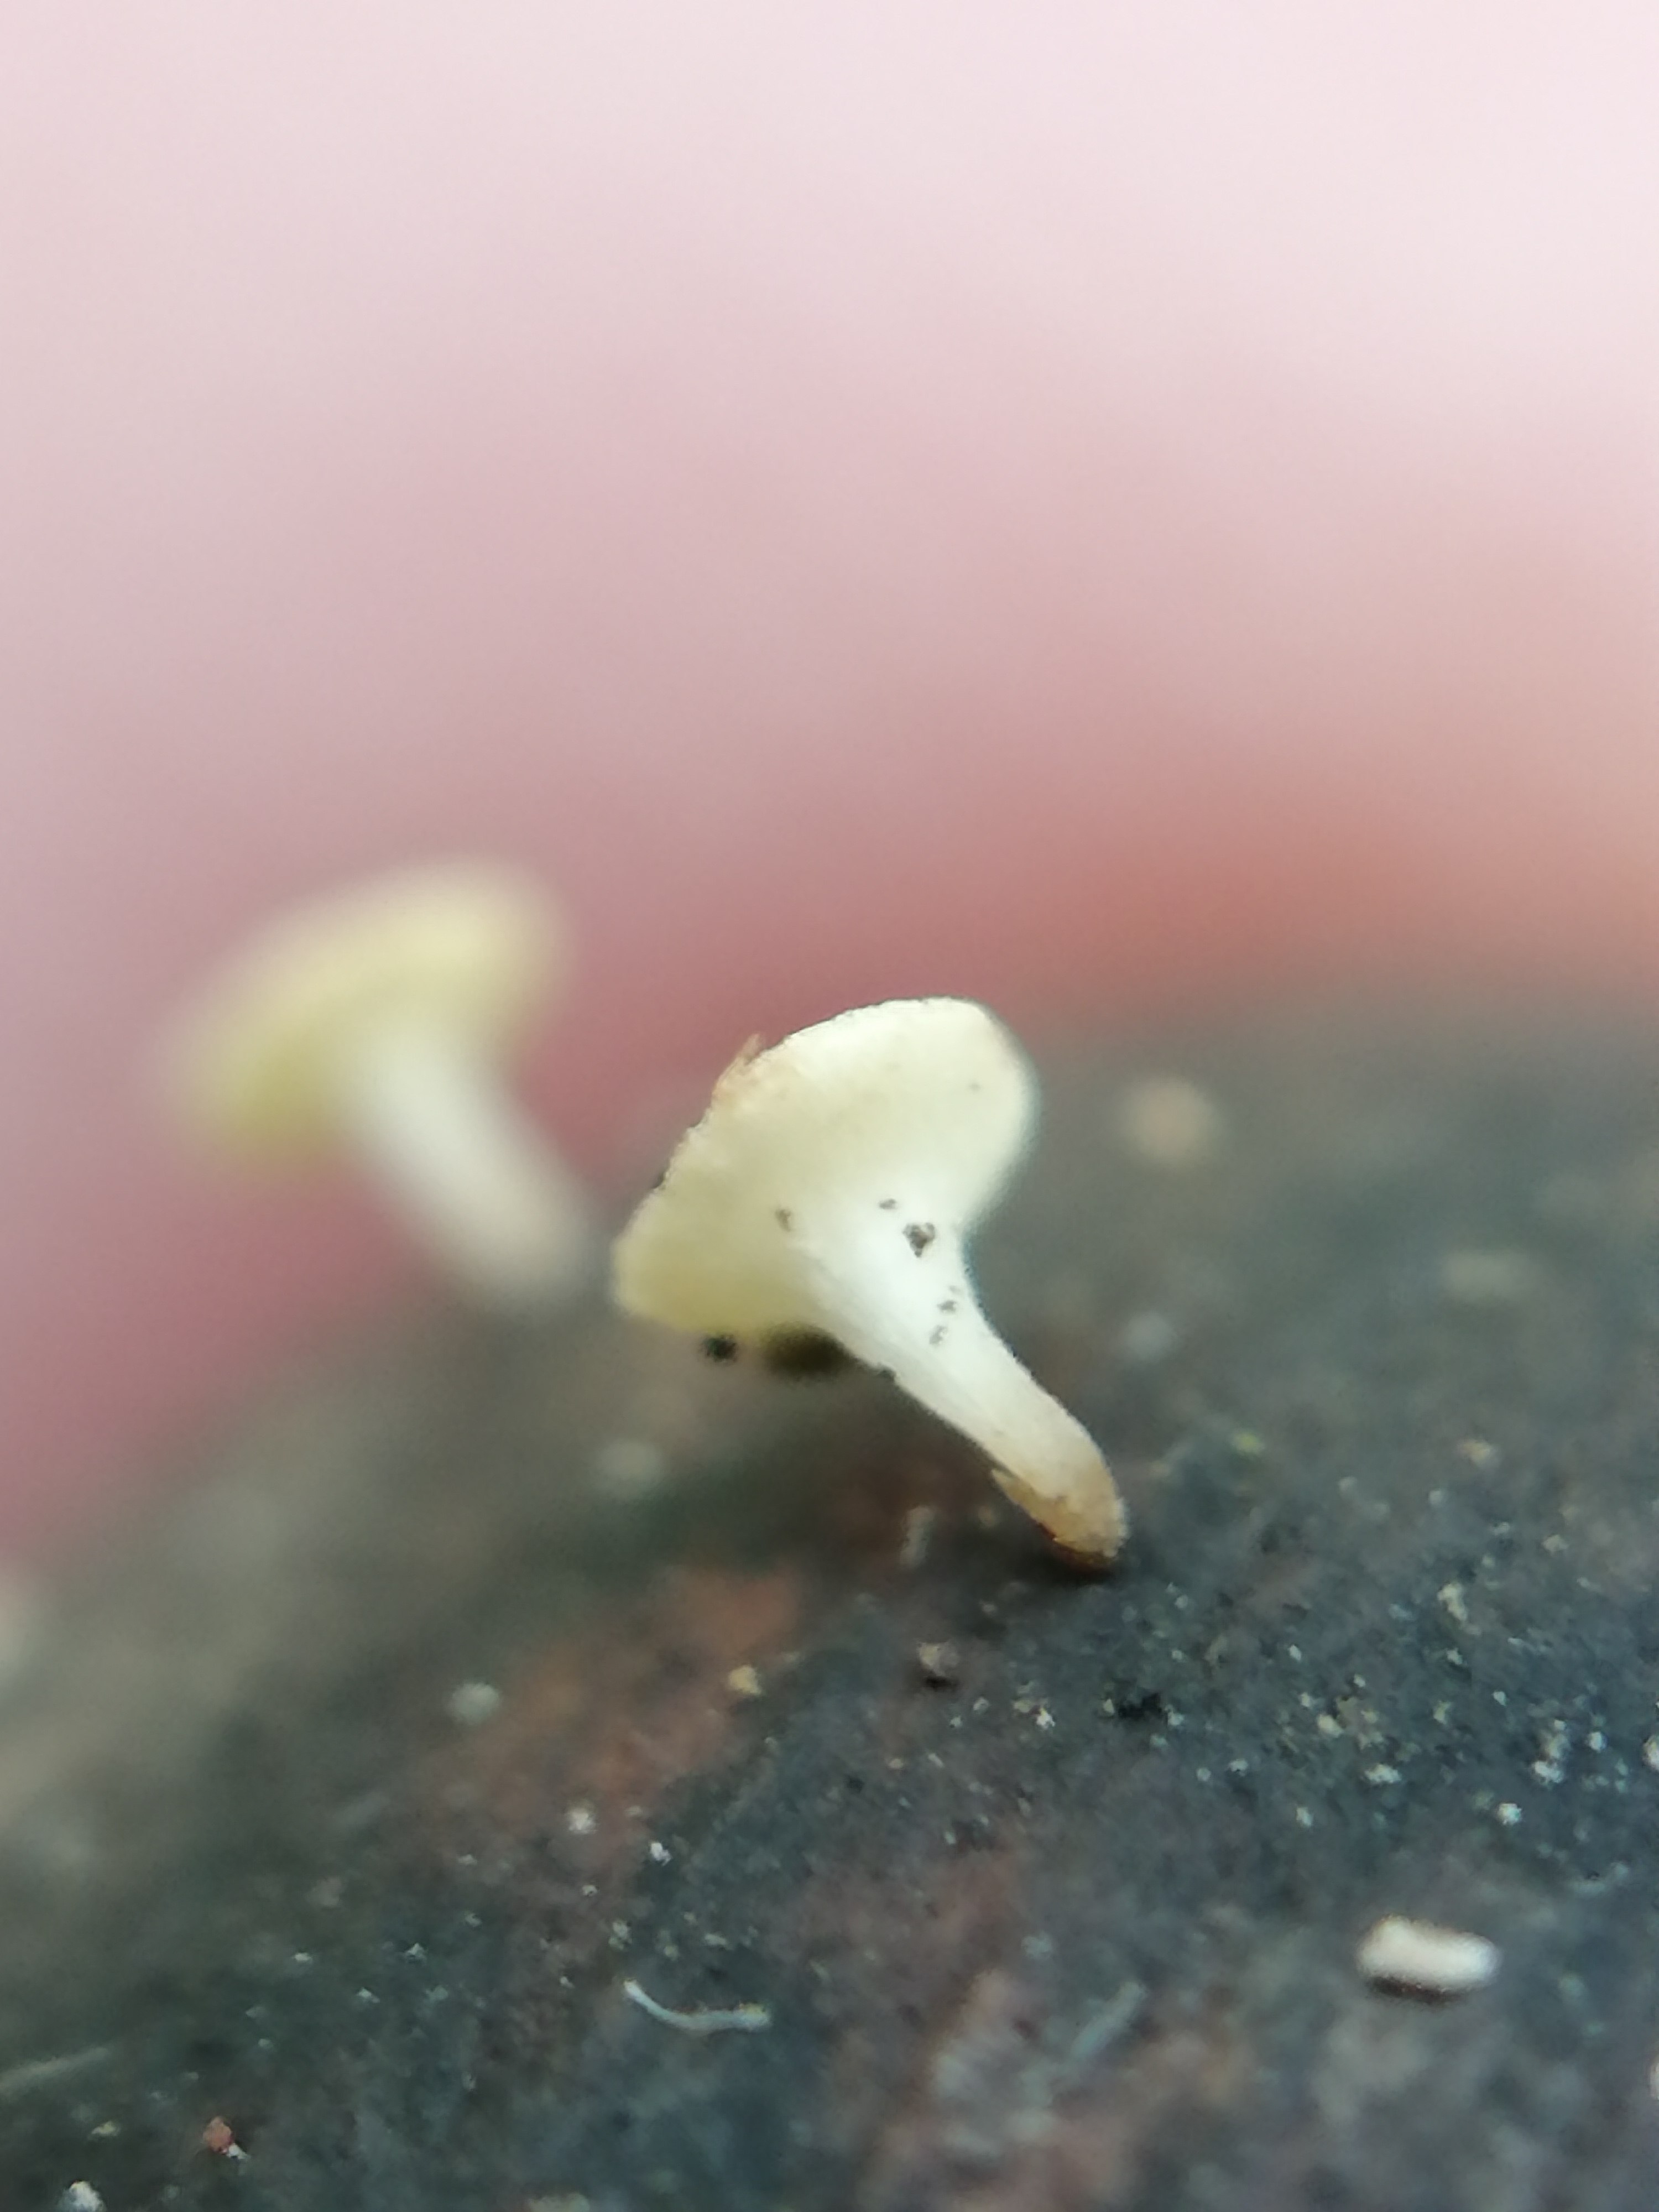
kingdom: Fungi
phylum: Ascomycota
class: Leotiomycetes
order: Helotiales
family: Helotiaceae
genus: Hymenoscyphus
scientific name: Hymenoscyphus rokebyensis
